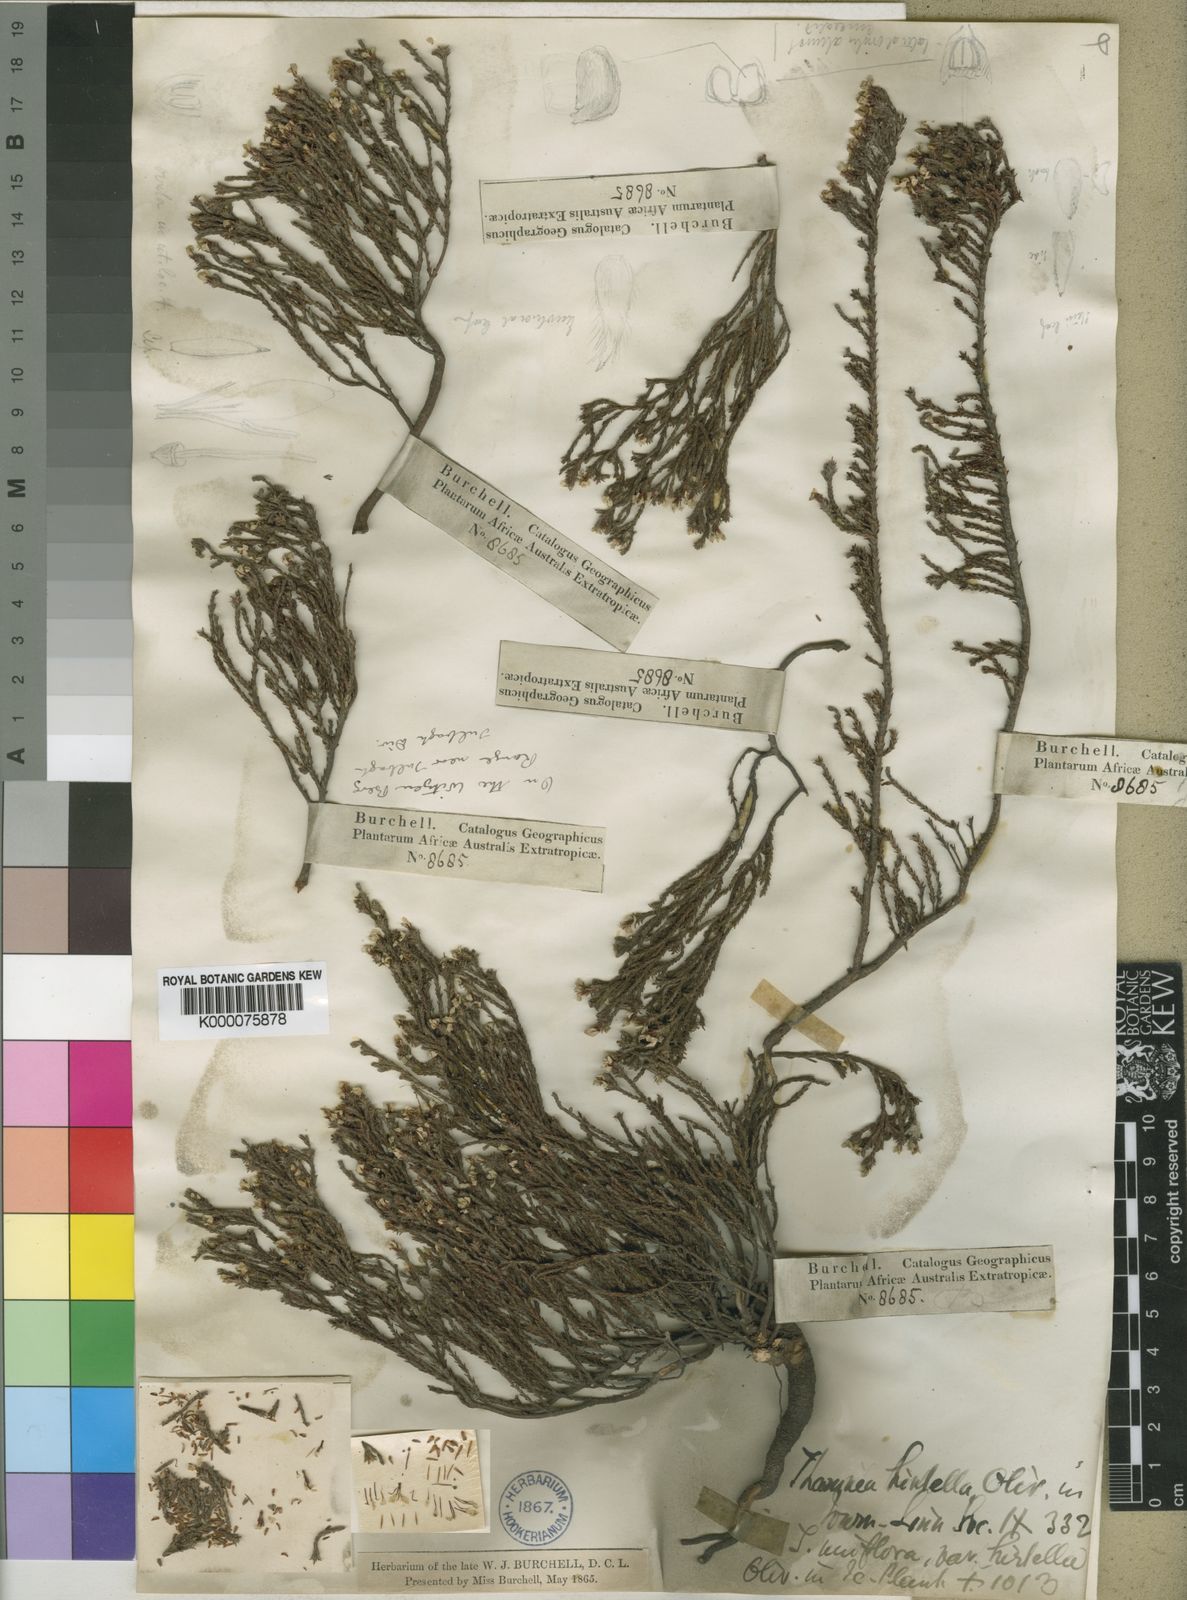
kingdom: Plantae
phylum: Tracheophyta
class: Magnoliopsida
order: Bruniales
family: Bruniaceae
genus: Thamnea
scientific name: Thamnea hirtella
